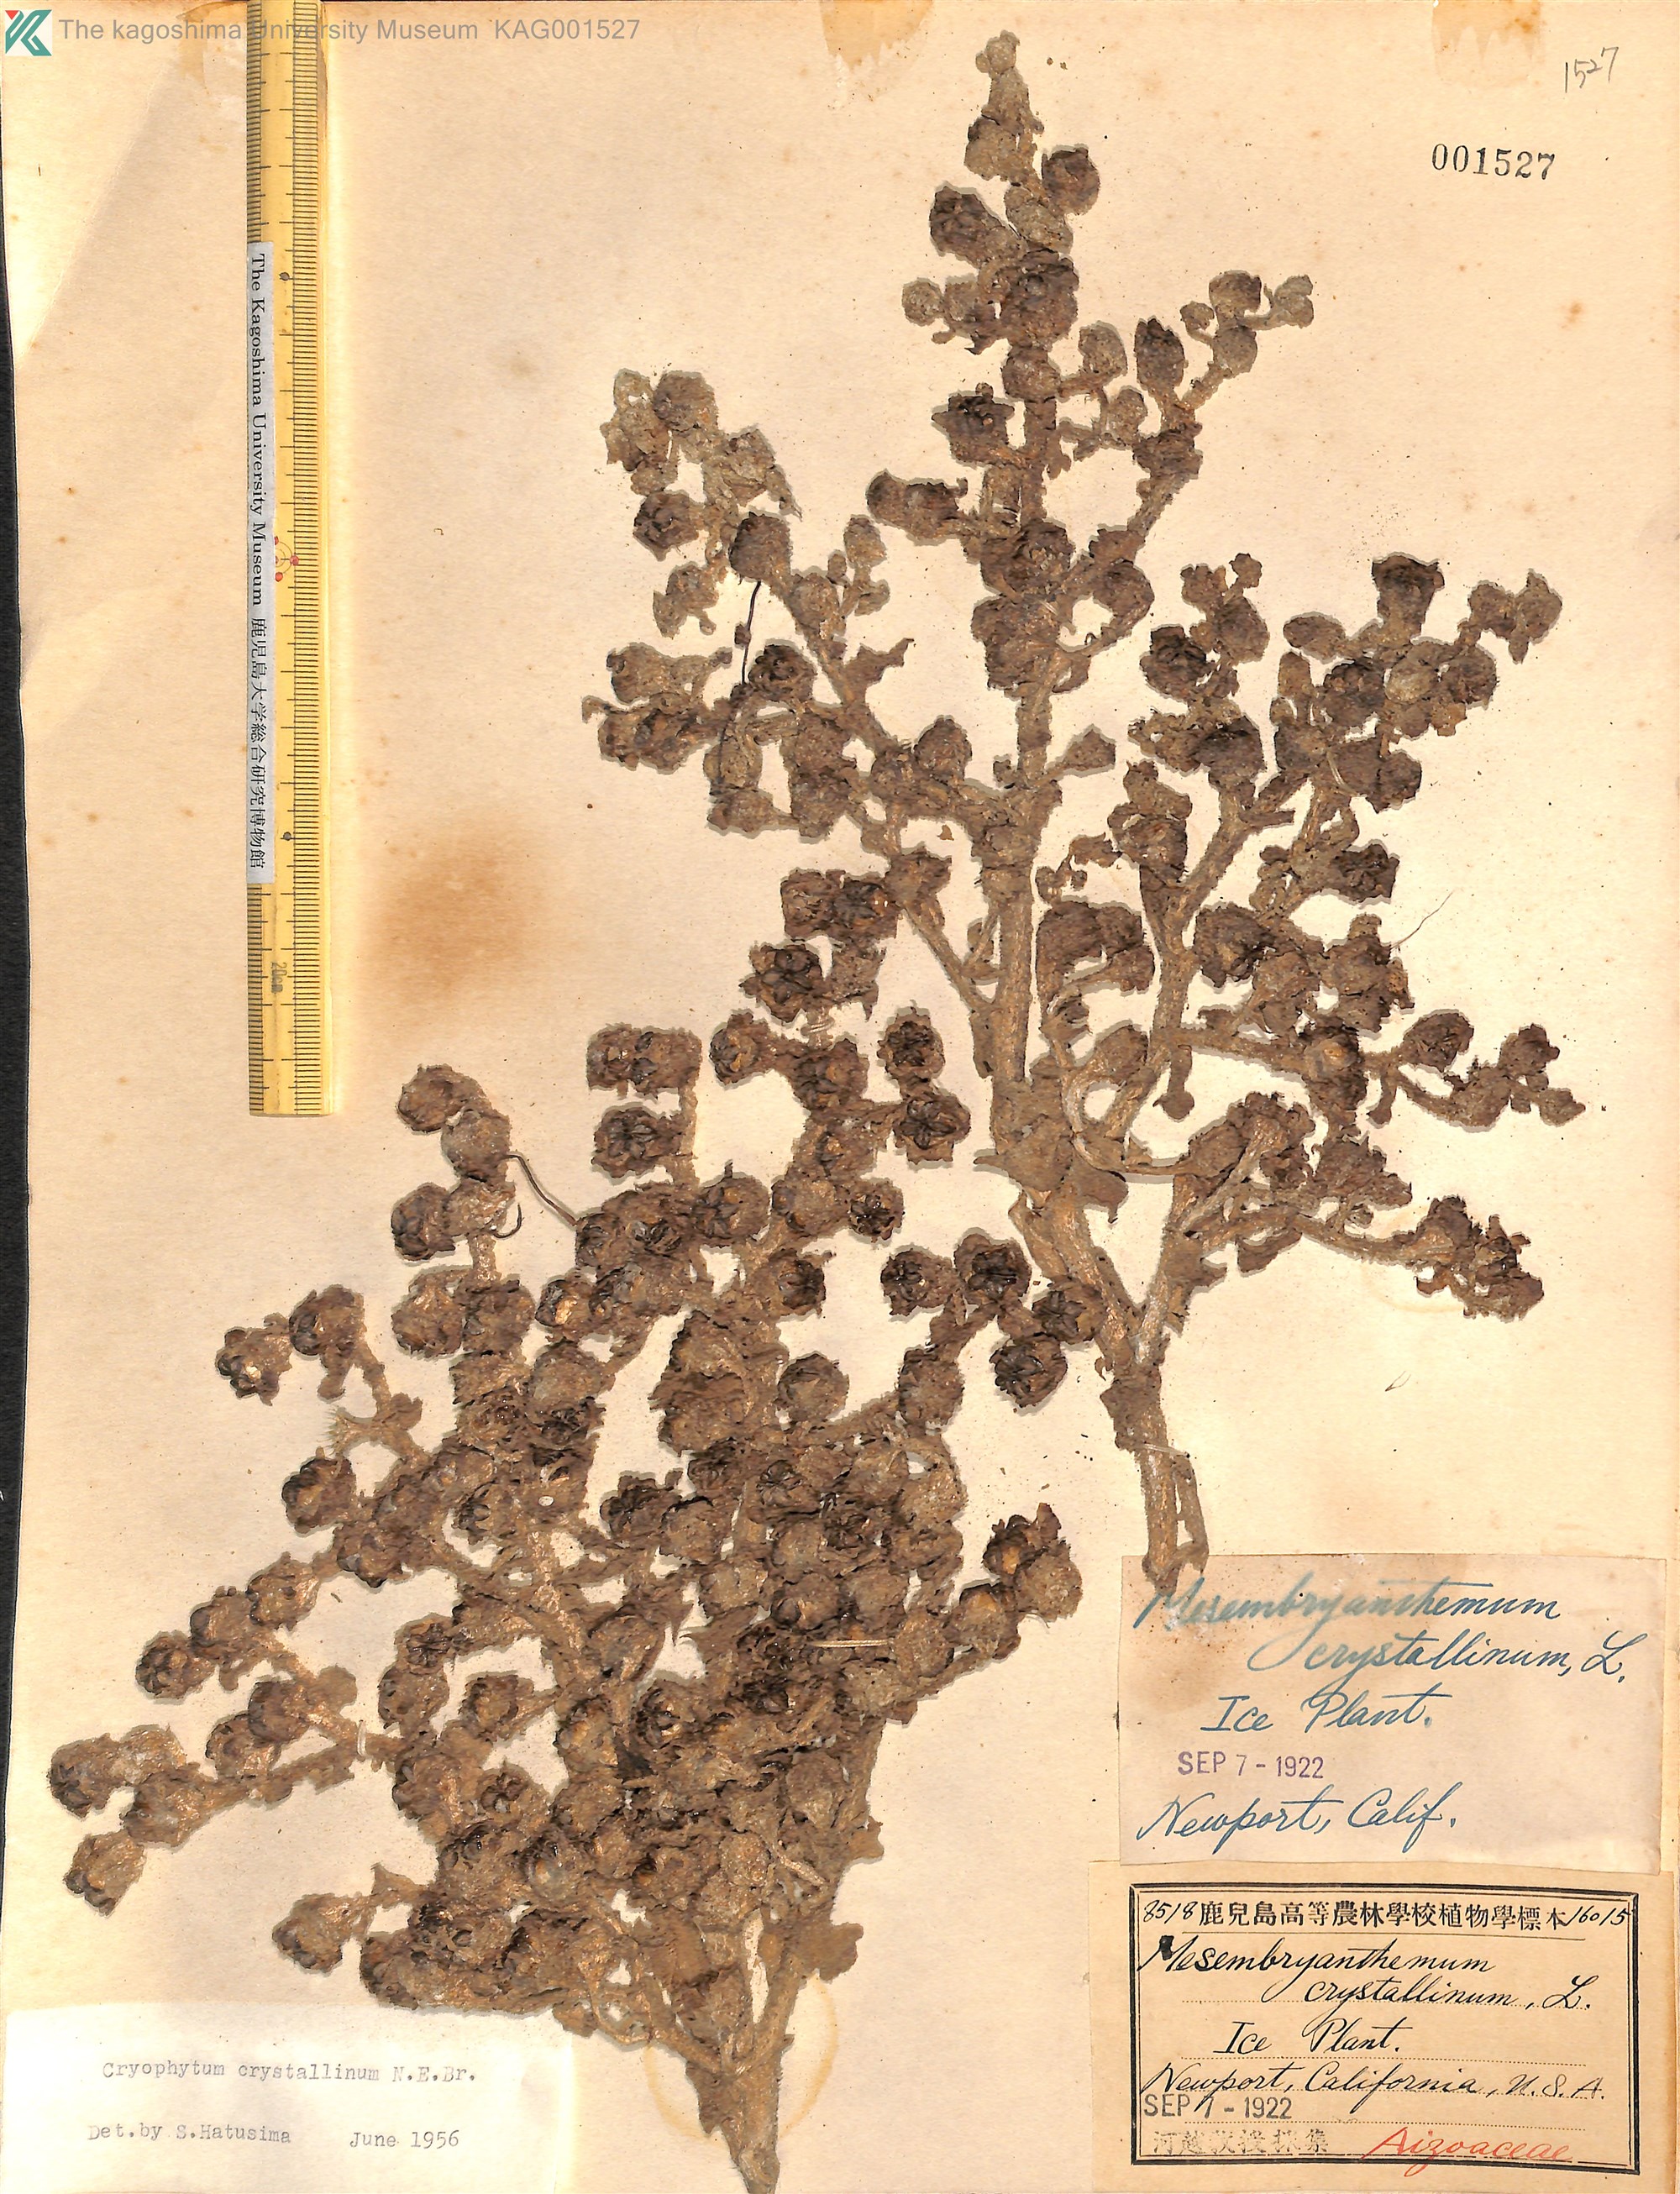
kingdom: Plantae
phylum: Tracheophyta
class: Magnoliopsida
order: Caryophyllales
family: Aizoaceae
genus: Mesembryanthemum
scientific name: Mesembryanthemum crystallinum
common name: Common iceplant
